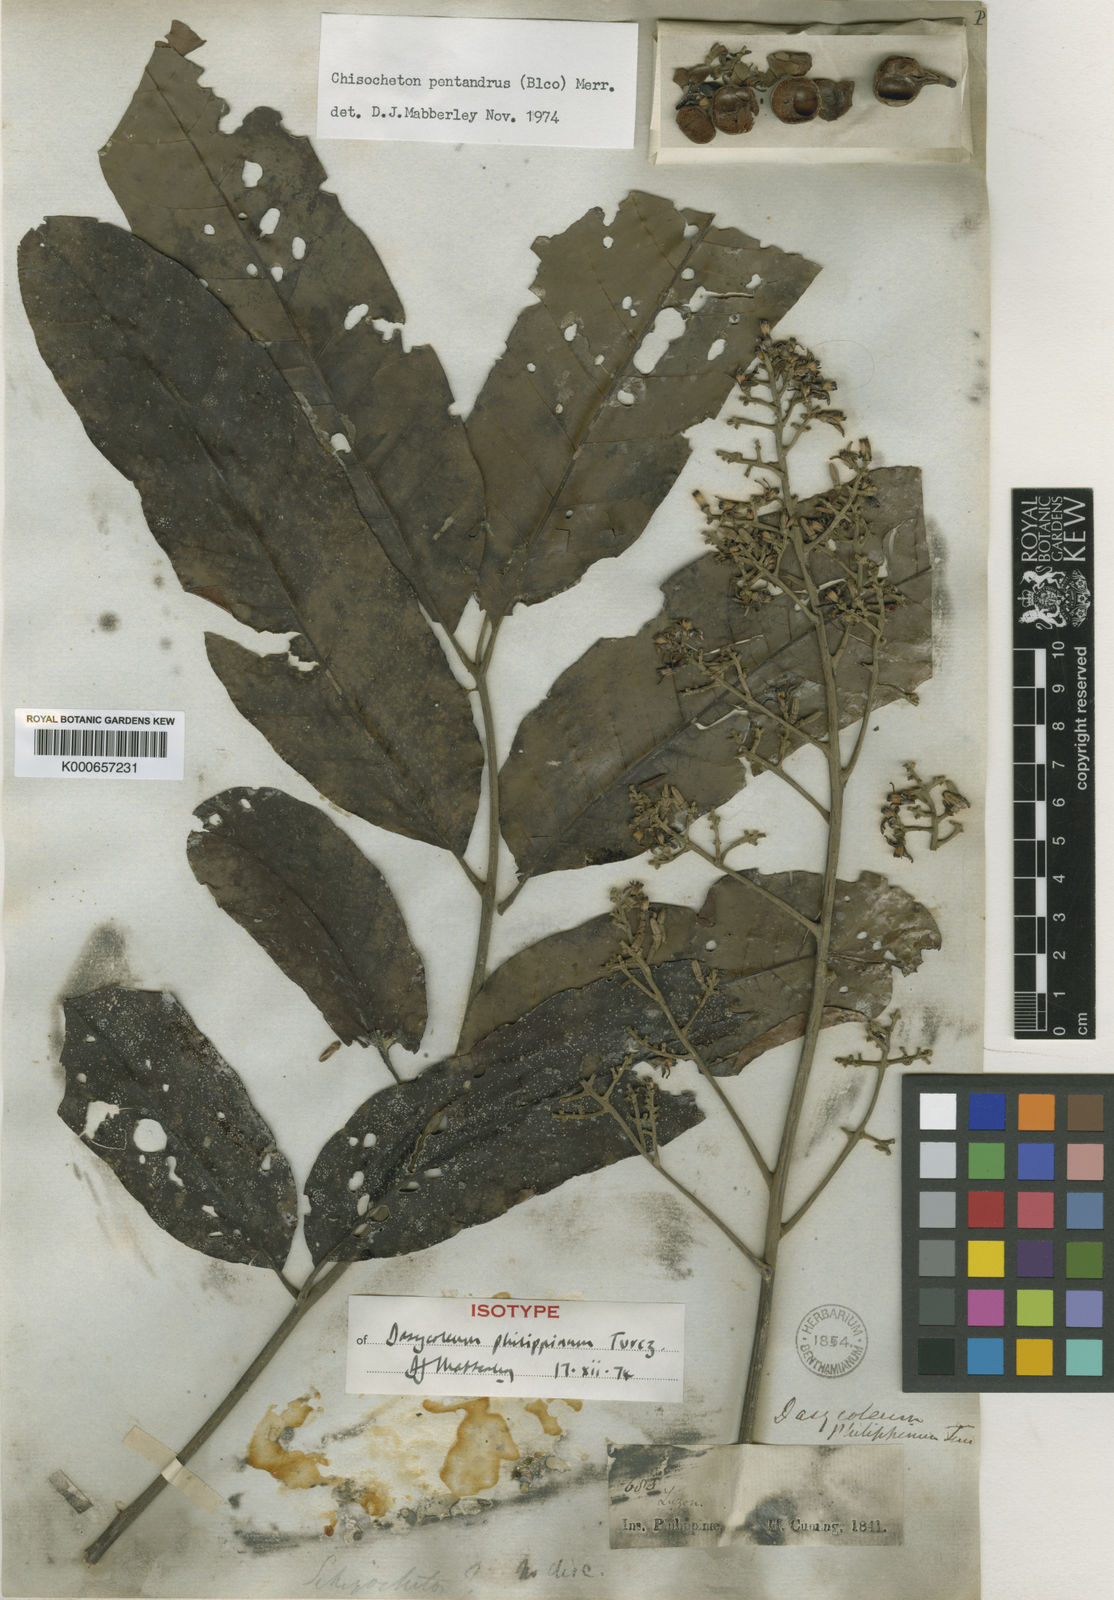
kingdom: Plantae
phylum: Tracheophyta
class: Magnoliopsida
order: Sapindales
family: Meliaceae
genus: Chisocheton
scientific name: Chisocheton pentandrus
